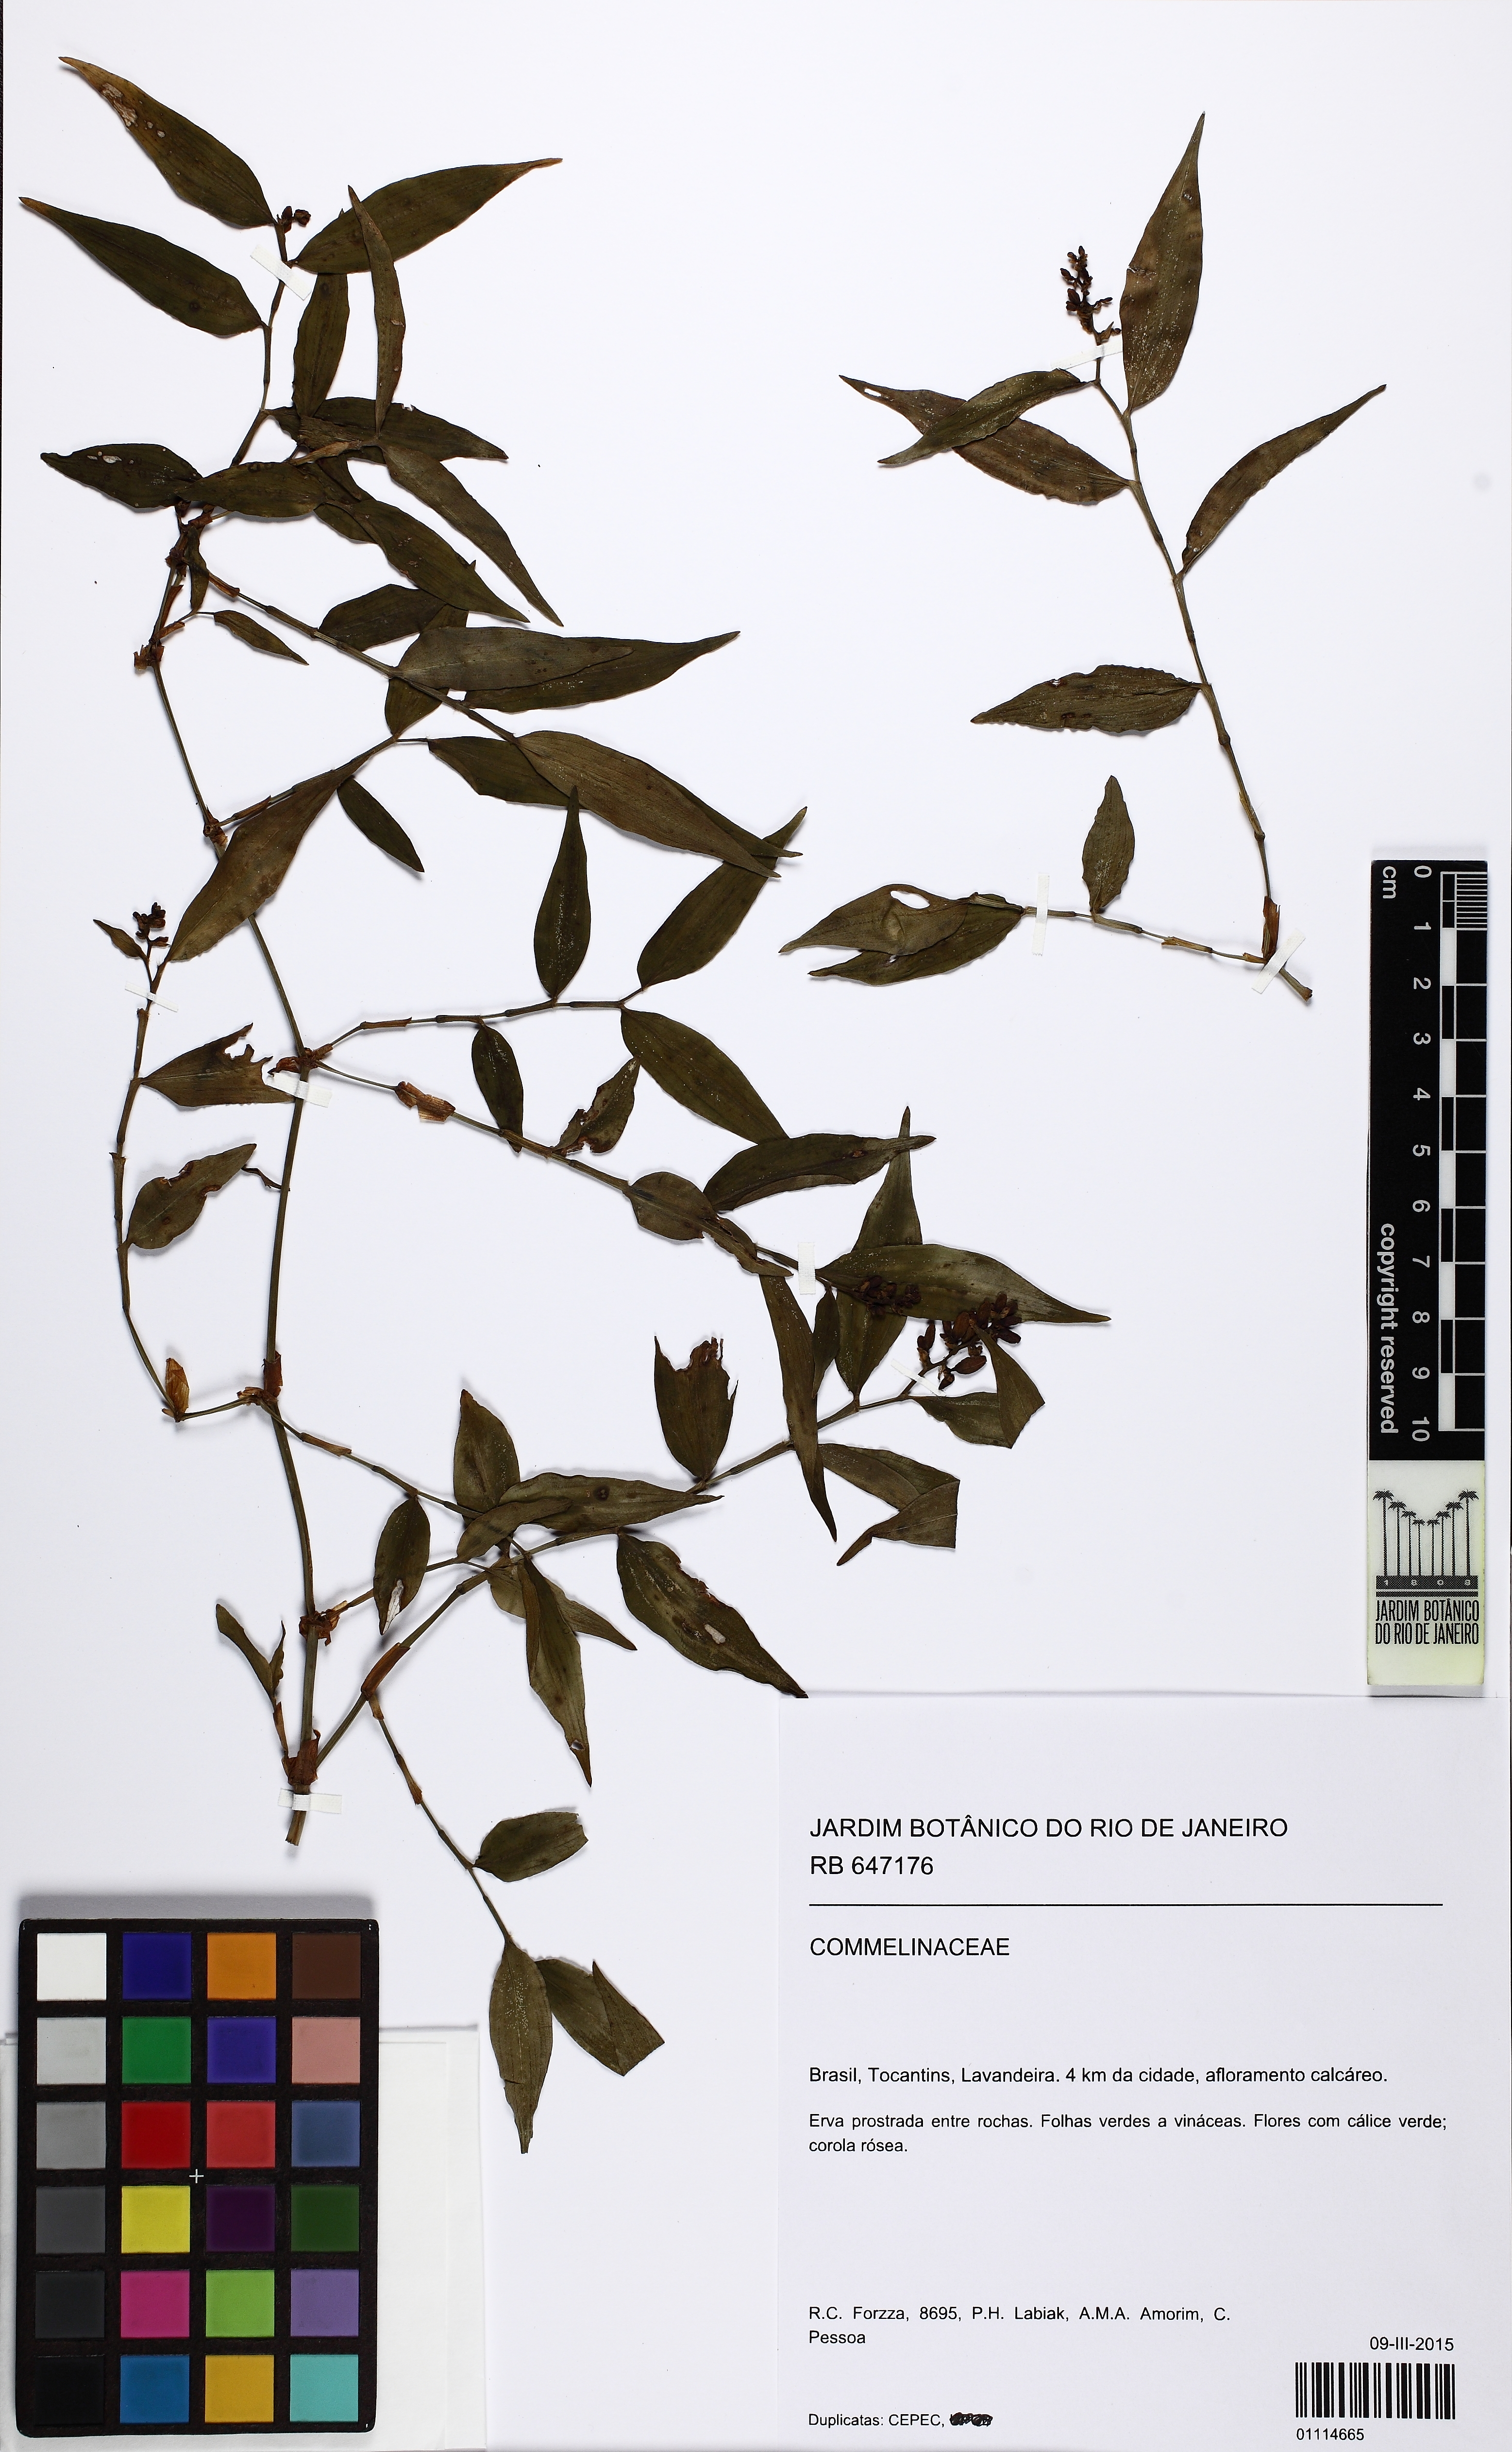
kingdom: Plantae
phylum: Tracheophyta
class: Liliopsida
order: Commelinales
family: Commelinaceae
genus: Dichorisandra
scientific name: Dichorisandra hexandra
